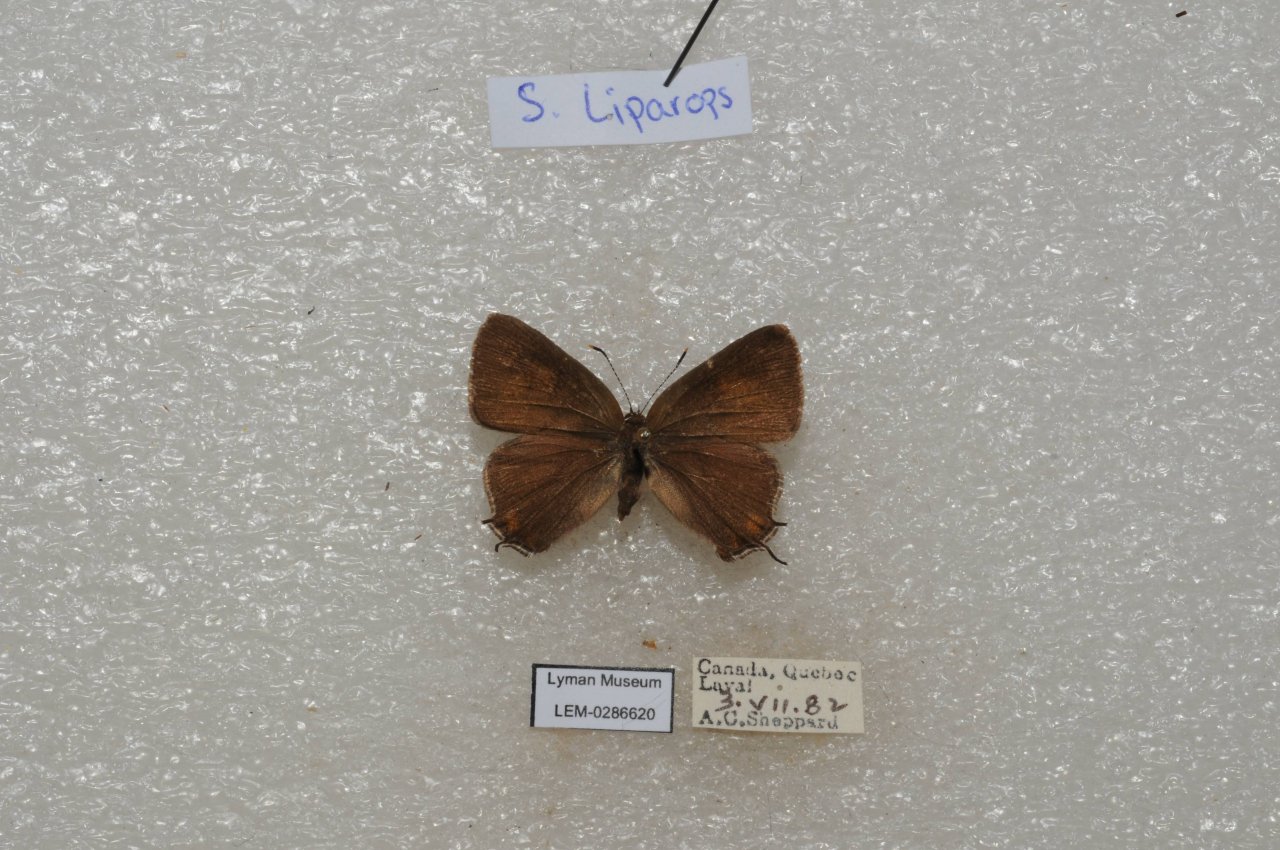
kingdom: Animalia
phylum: Arthropoda
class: Insecta
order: Lepidoptera
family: Lycaenidae
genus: Satyrium
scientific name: Satyrium liparops
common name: Striped Hairstreak
